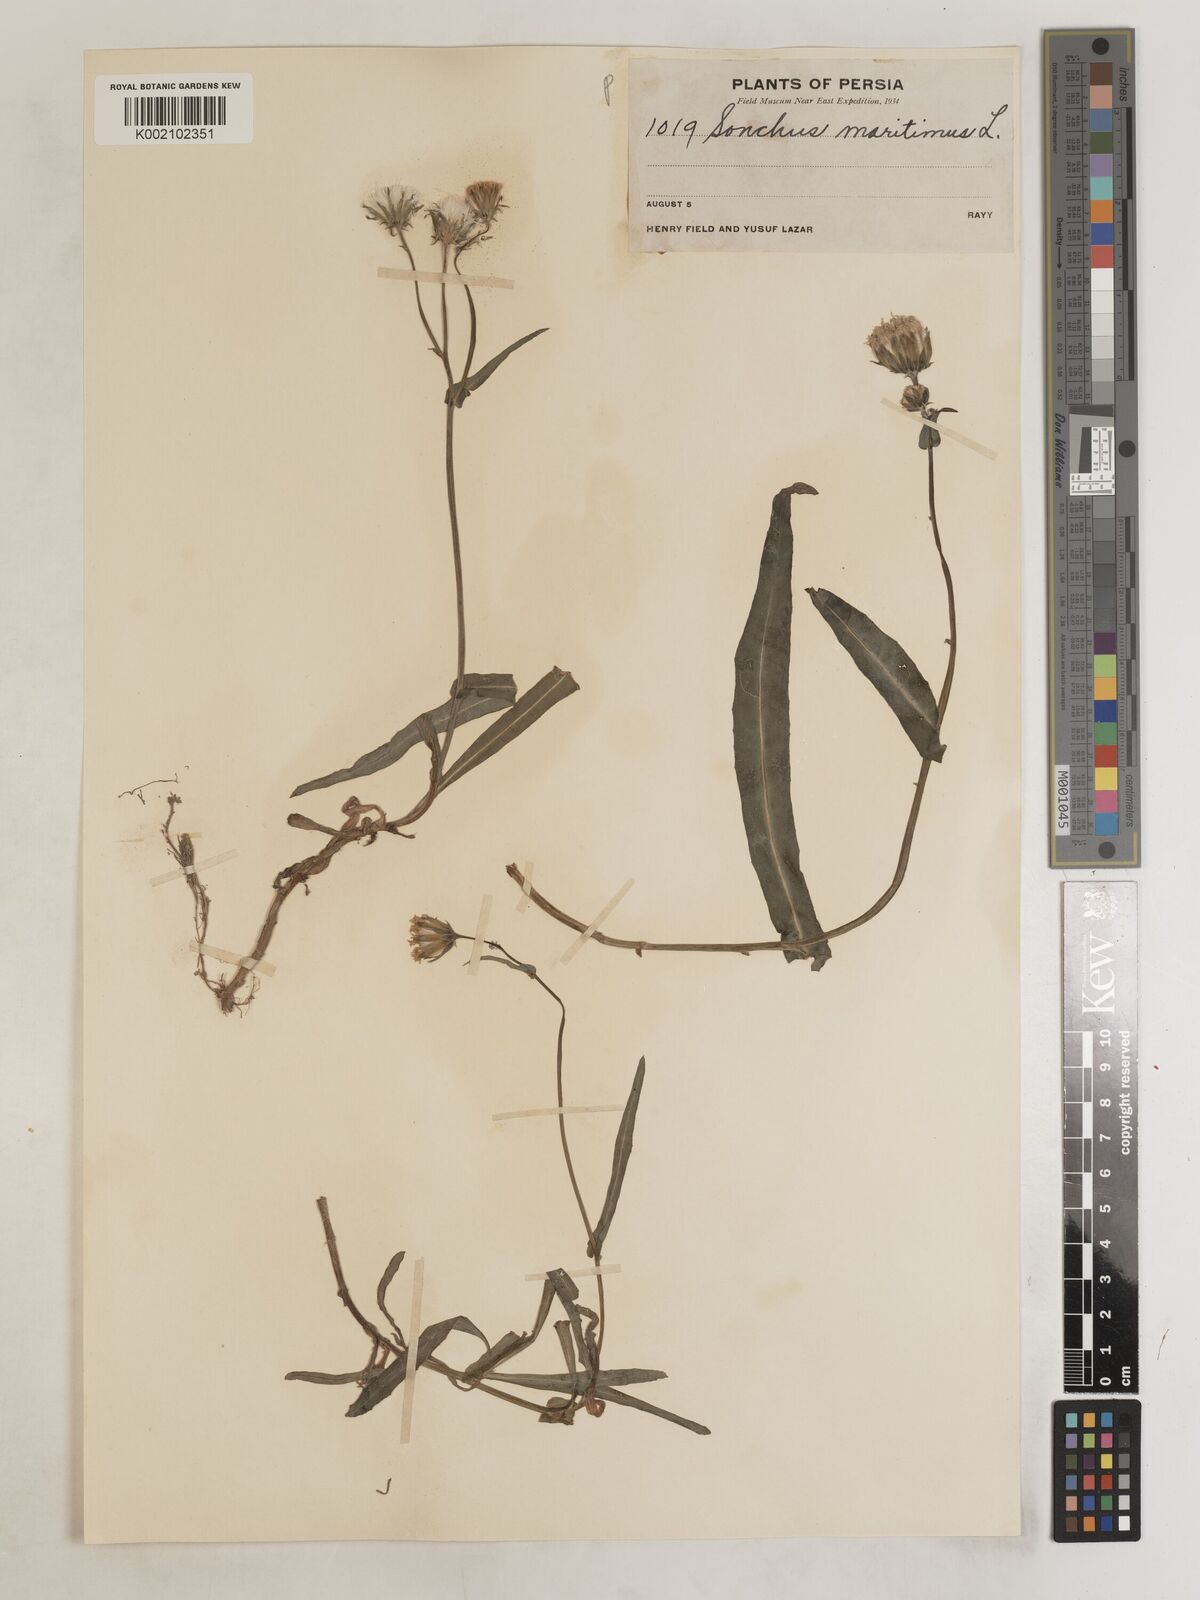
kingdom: Plantae
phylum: Tracheophyta
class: Magnoliopsida
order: Asterales
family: Asteraceae
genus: Sonchus
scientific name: Sonchus maritimus
